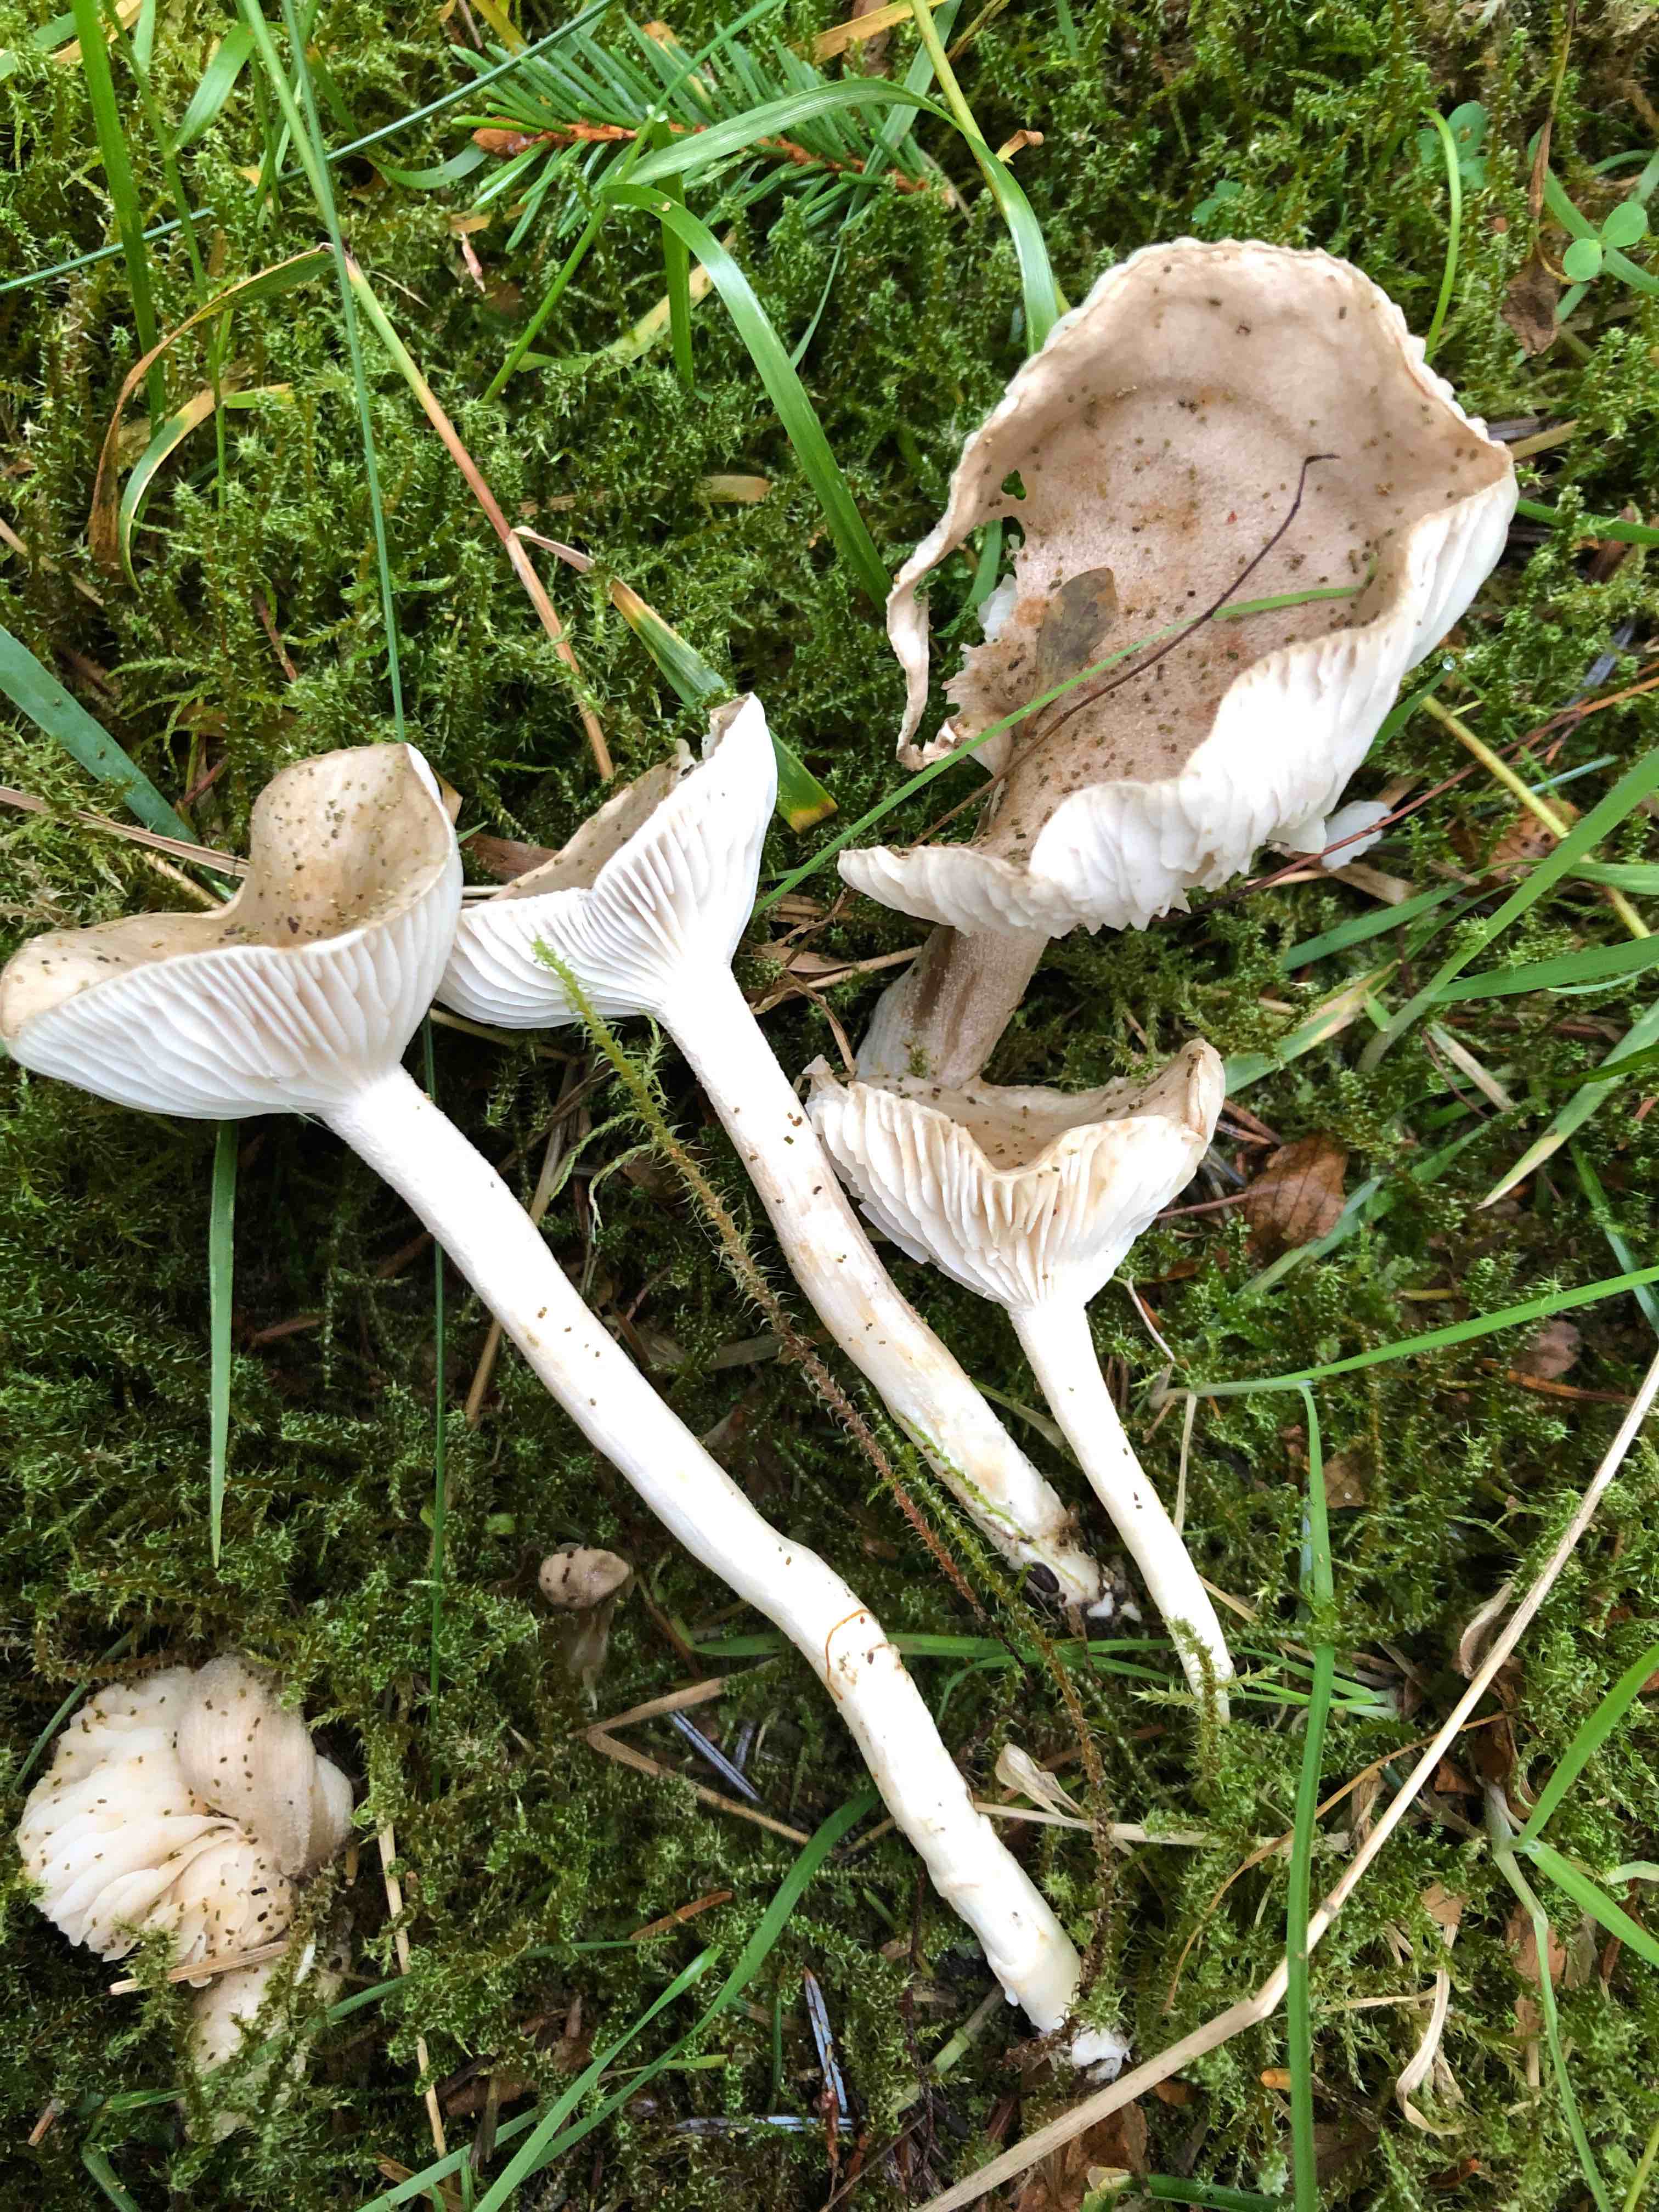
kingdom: Fungi
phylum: Basidiomycota
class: Agaricomycetes
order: Agaricales
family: Hygrophoraceae
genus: Hygrophorus
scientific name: Hygrophorus agathosmus
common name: vellugtende sneglehat
